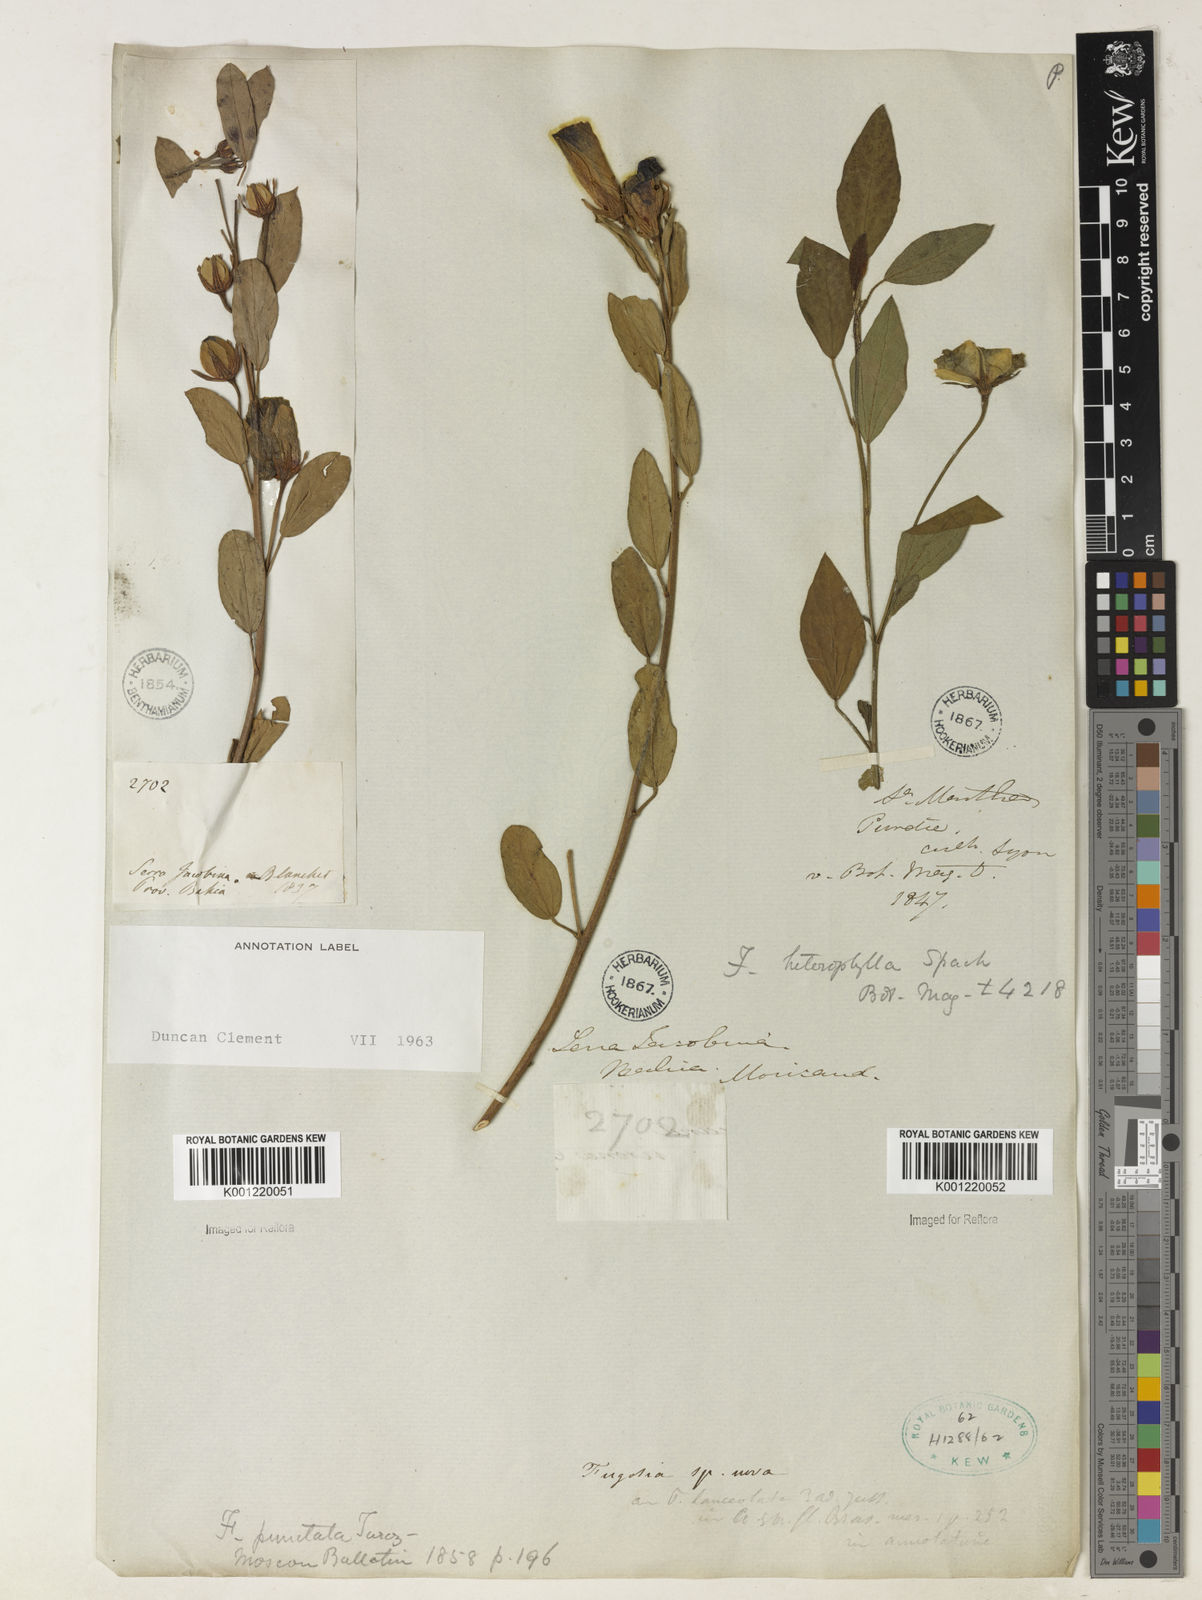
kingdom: Plantae
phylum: Tracheophyta
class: Magnoliopsida
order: Malvales
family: Malvaceae
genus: Cienfuegosia
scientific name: Cienfuegosia heterophylla
